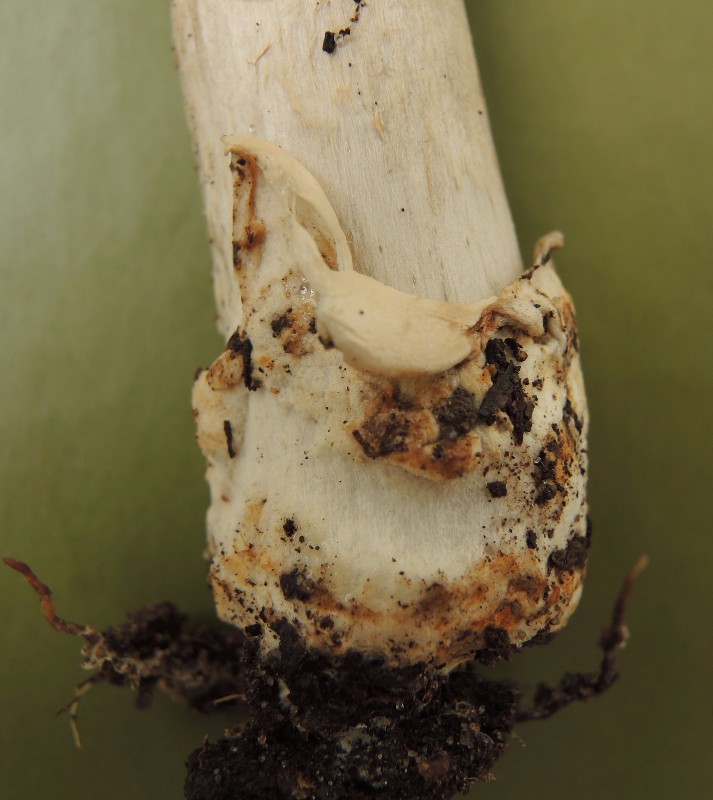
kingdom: Fungi
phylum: Basidiomycota
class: Agaricomycetes
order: Agaricales
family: Amanitaceae
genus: Amanita
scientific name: Amanita
